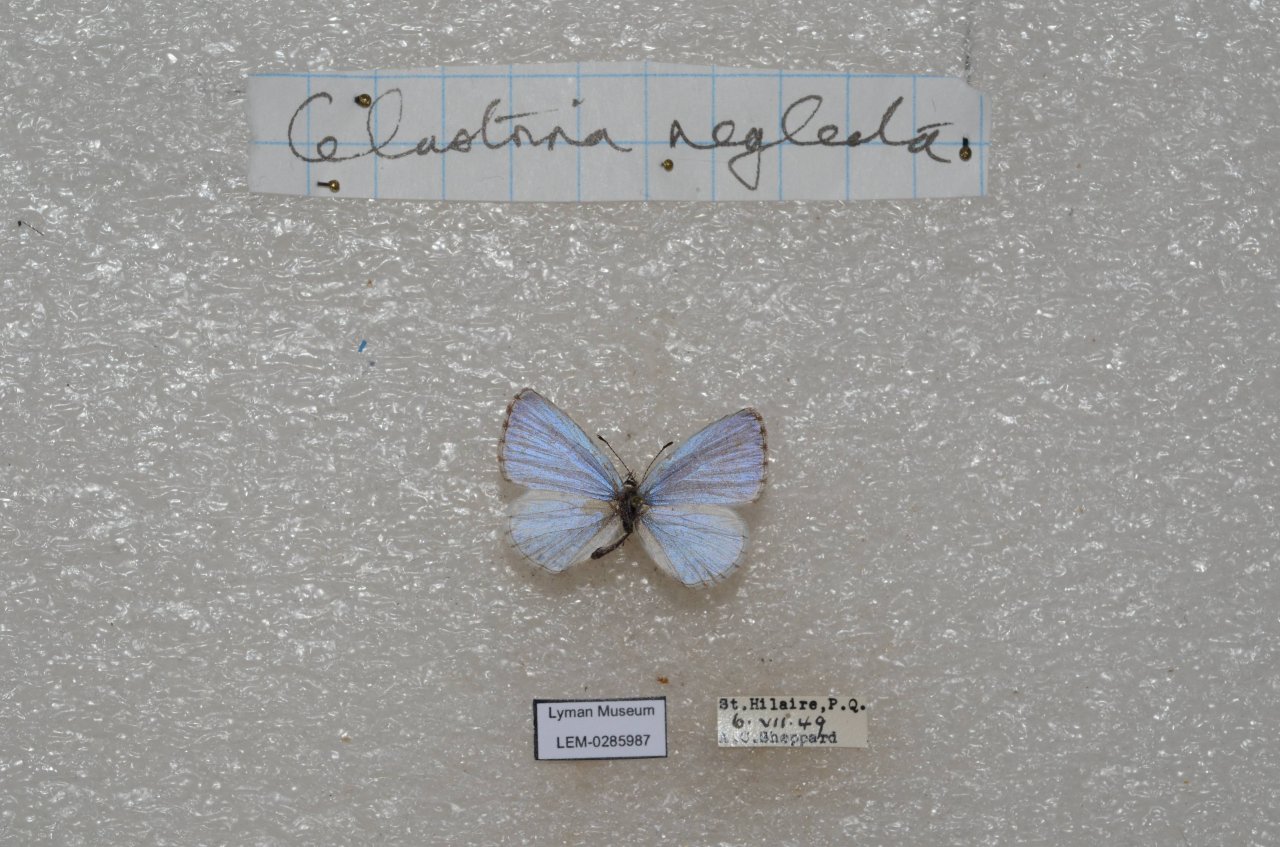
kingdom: Animalia
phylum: Arthropoda
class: Insecta
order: Lepidoptera
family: Lycaenidae
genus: Celastrina
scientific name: Celastrina lucia
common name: Northern Spring Azure
